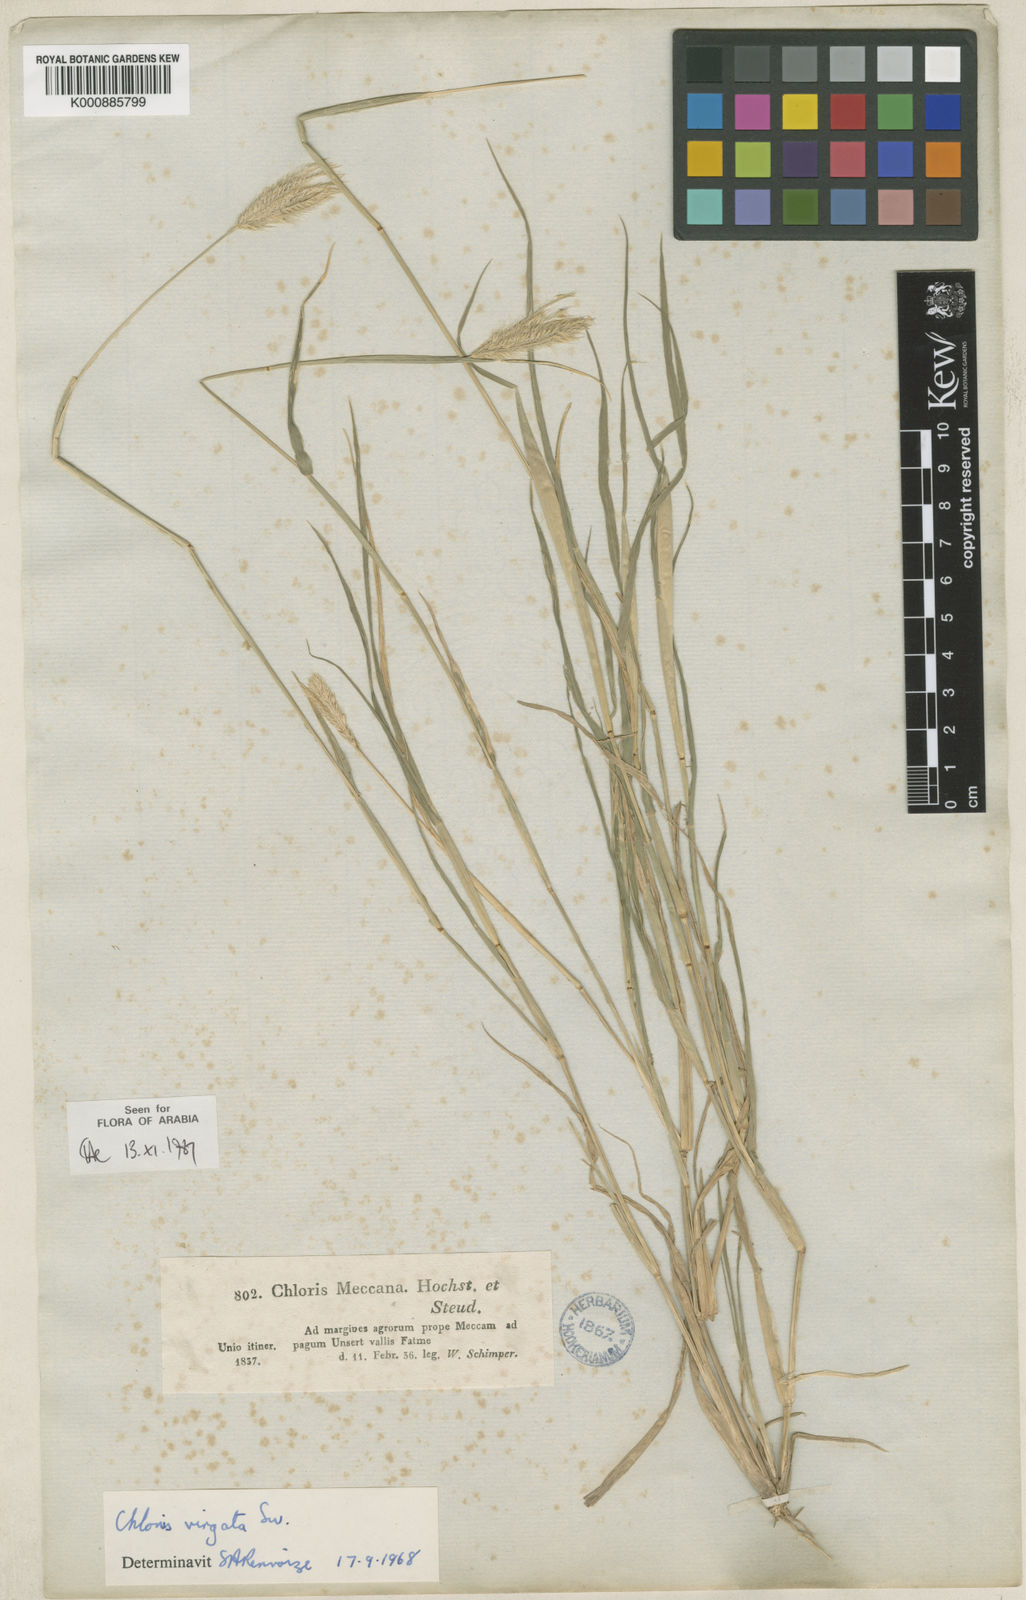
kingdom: Plantae
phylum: Tracheophyta
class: Liliopsida
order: Poales
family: Poaceae
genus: Chloris
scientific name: Chloris virgata
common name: Feathery rhodes-grass
